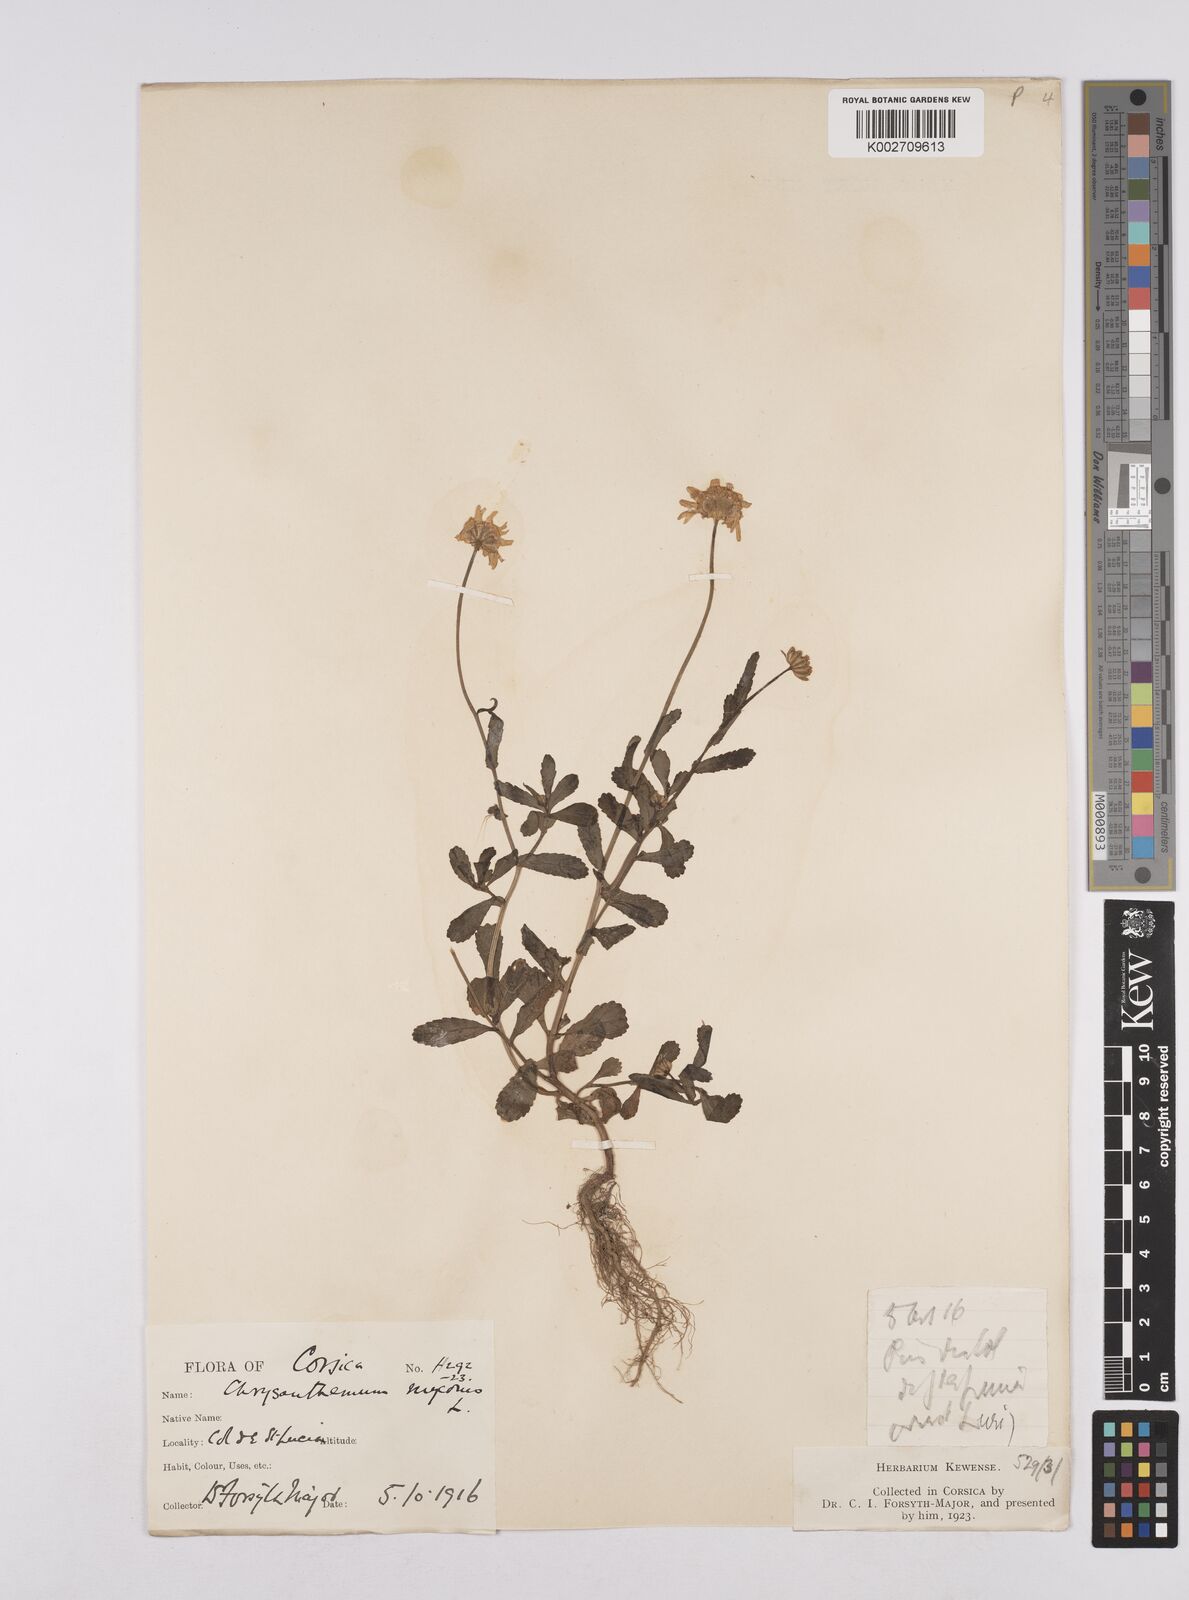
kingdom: Plantae
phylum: Tracheophyta
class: Magnoliopsida
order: Asterales
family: Asteraceae
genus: Coleostephus
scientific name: Coleostephus myconis
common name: Mediterranean marigold
